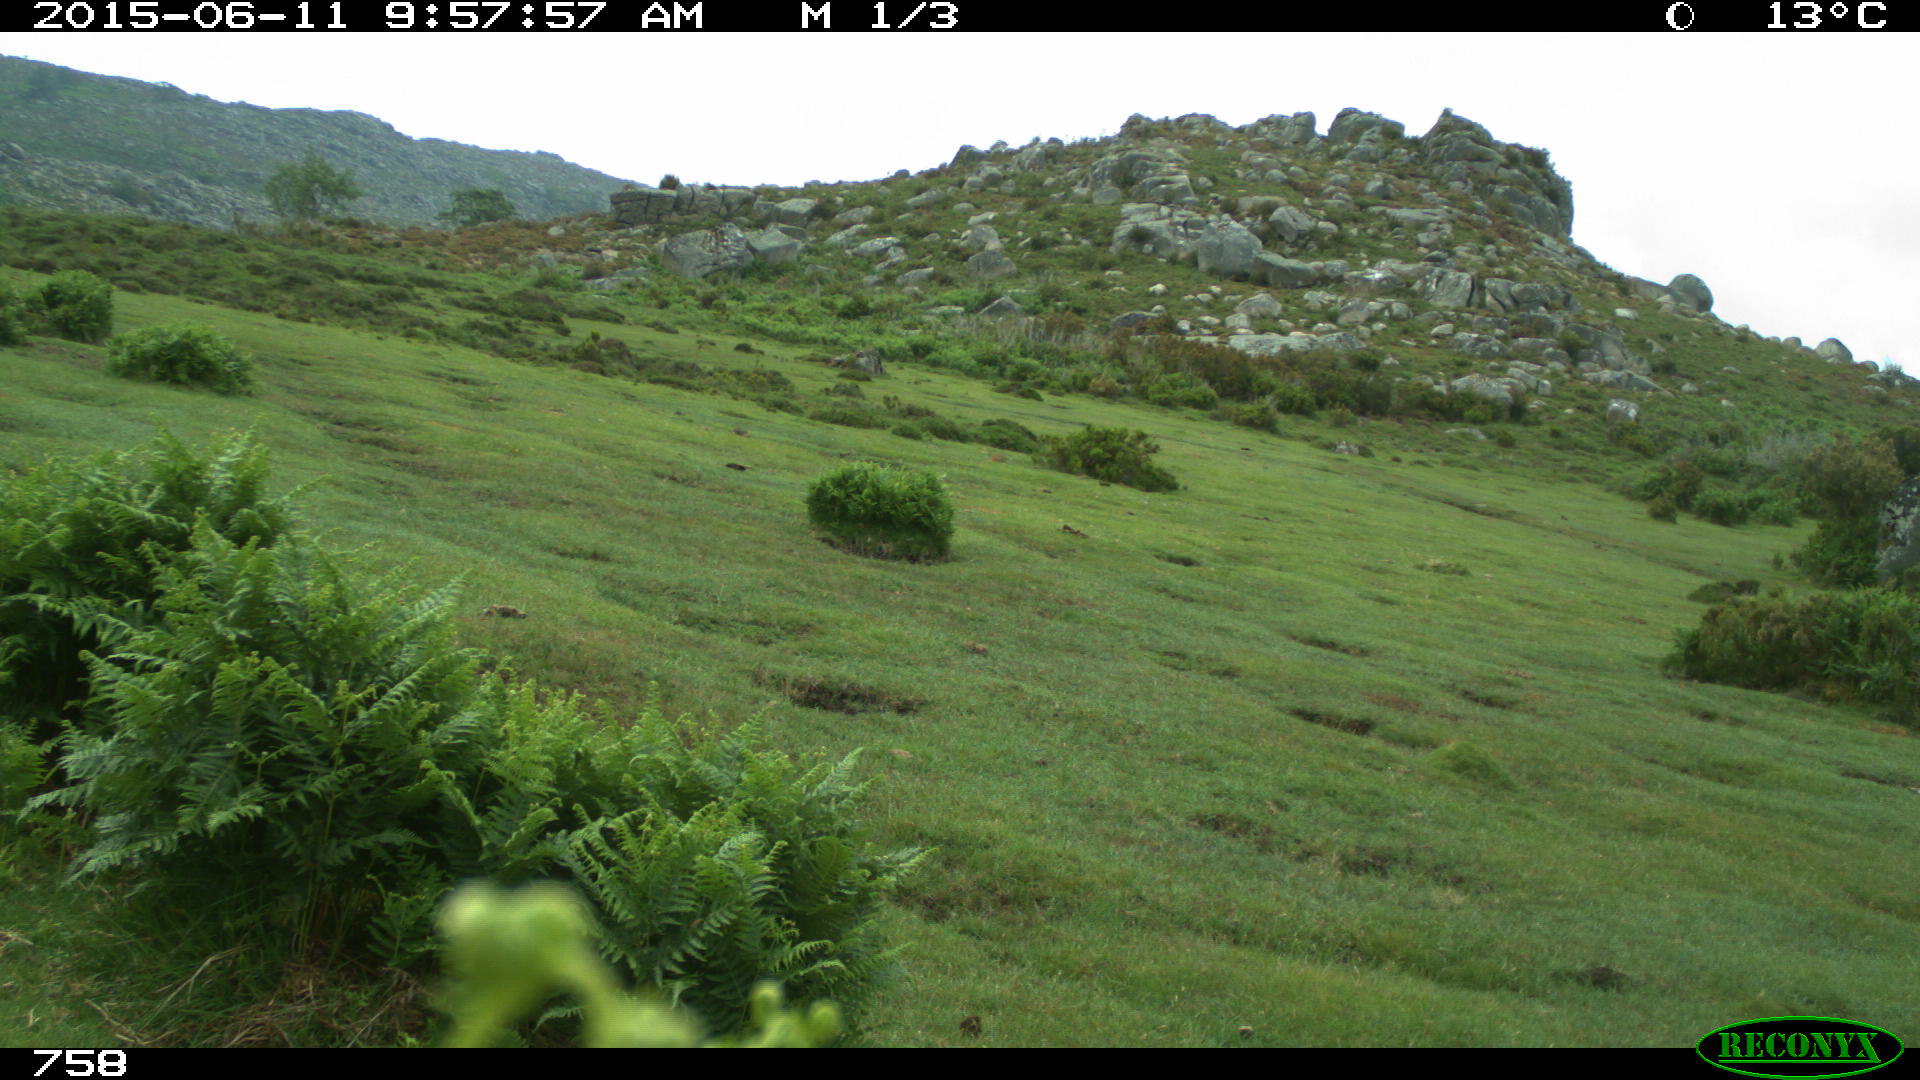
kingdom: Animalia
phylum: Chordata
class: Mammalia
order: Artiodactyla
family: Bovidae
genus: Bos
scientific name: Bos taurus
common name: Domesticated cattle
